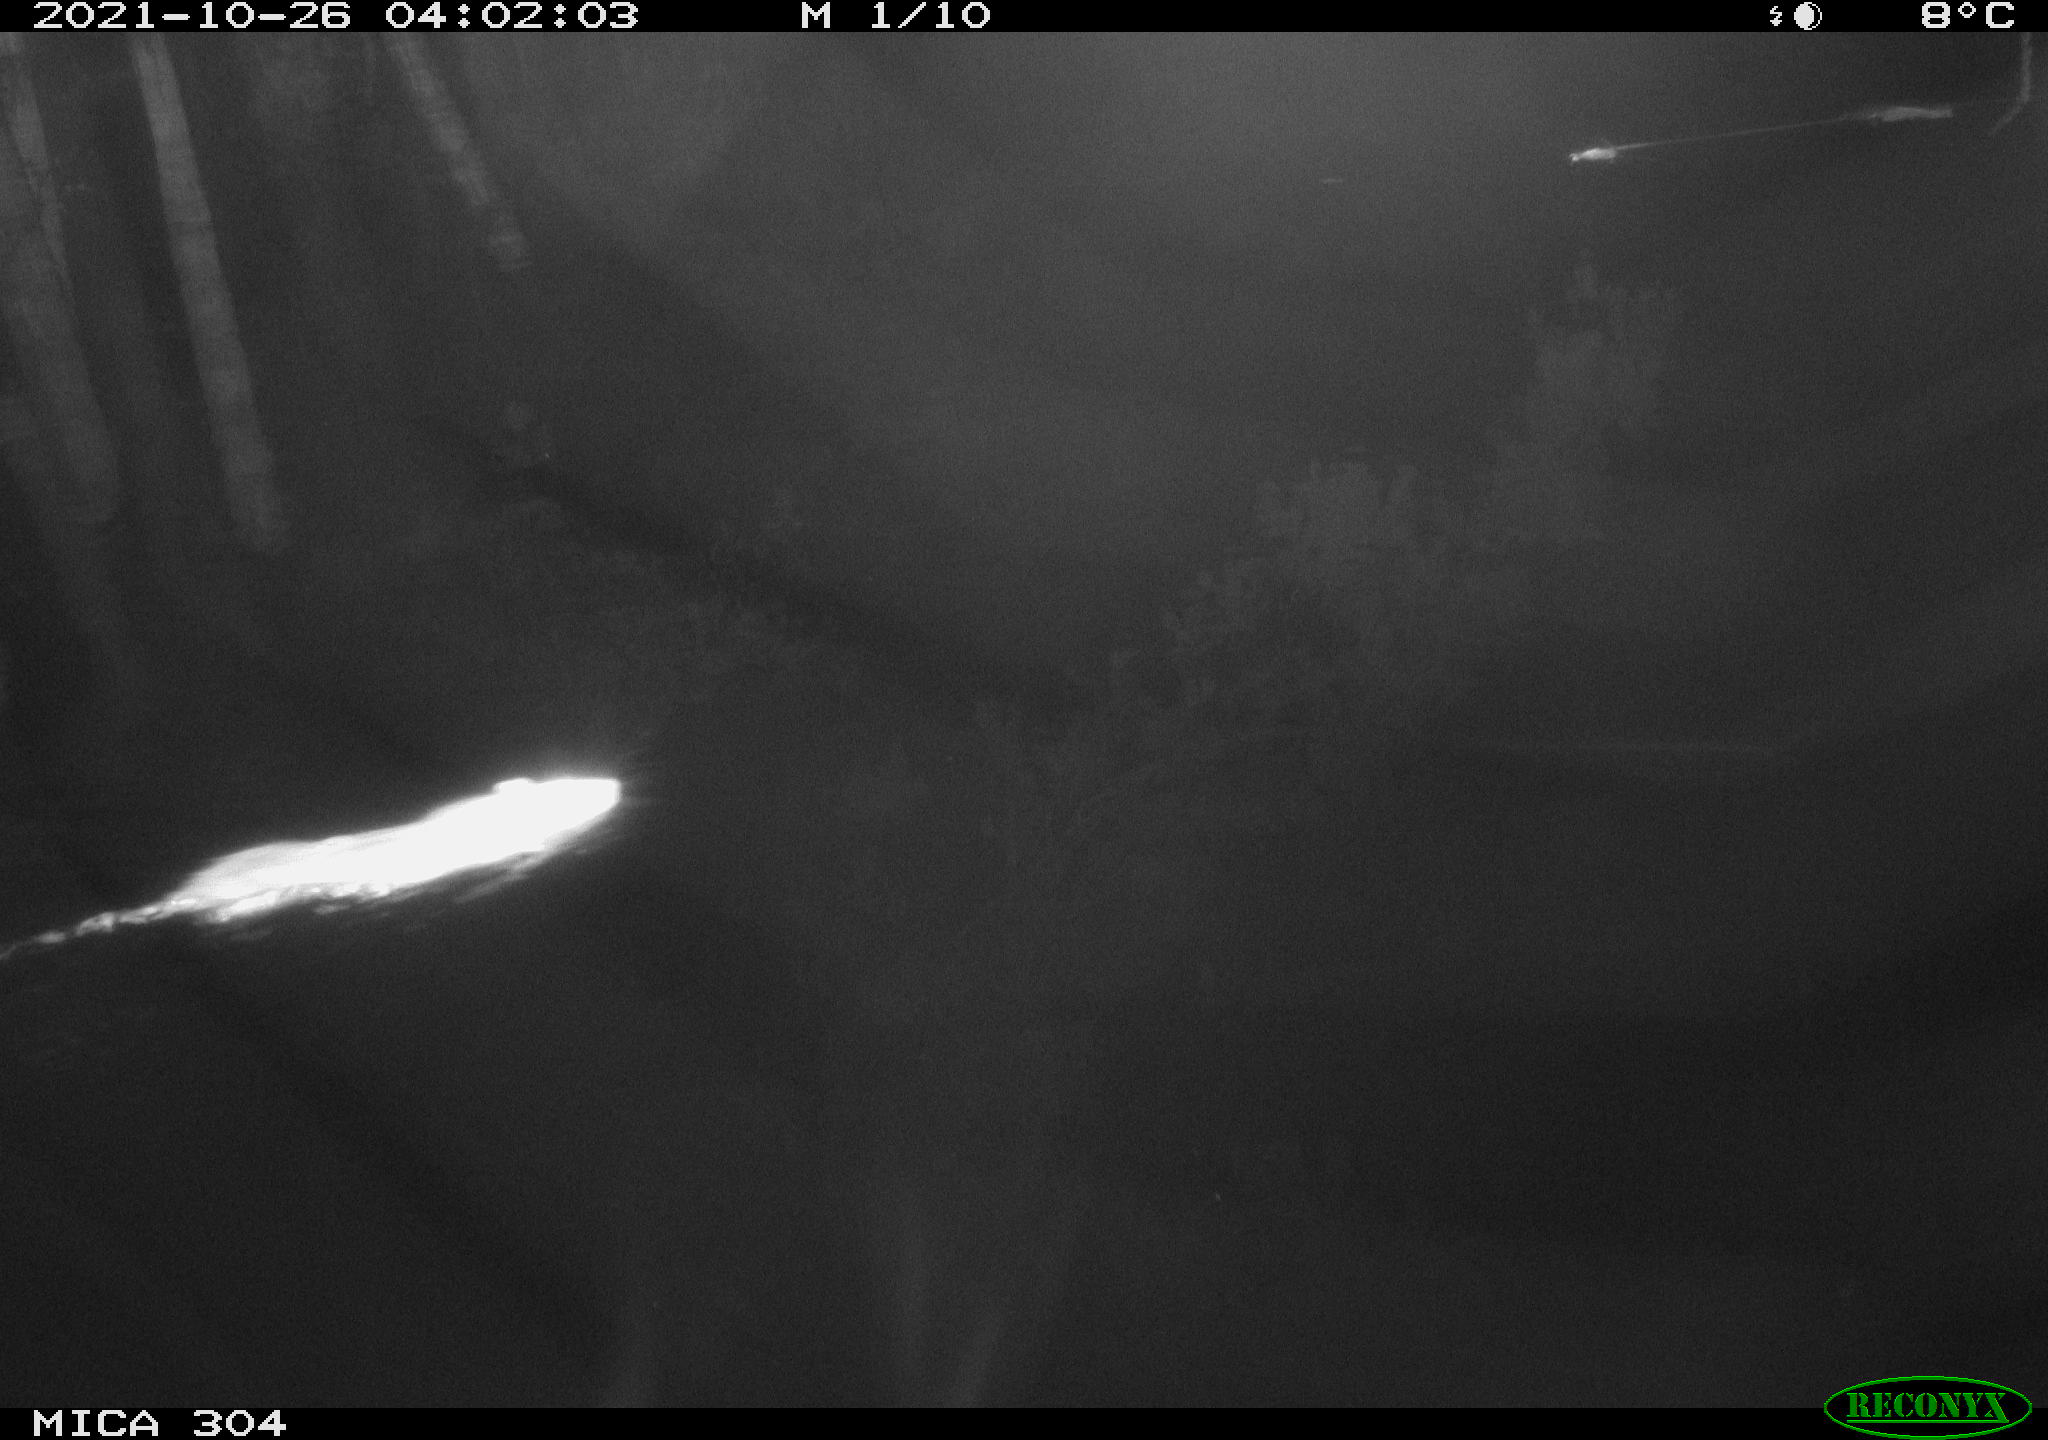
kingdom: Animalia
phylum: Chordata
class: Mammalia
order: Rodentia
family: Muridae
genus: Rattus
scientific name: Rattus norvegicus
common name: Brown rat
